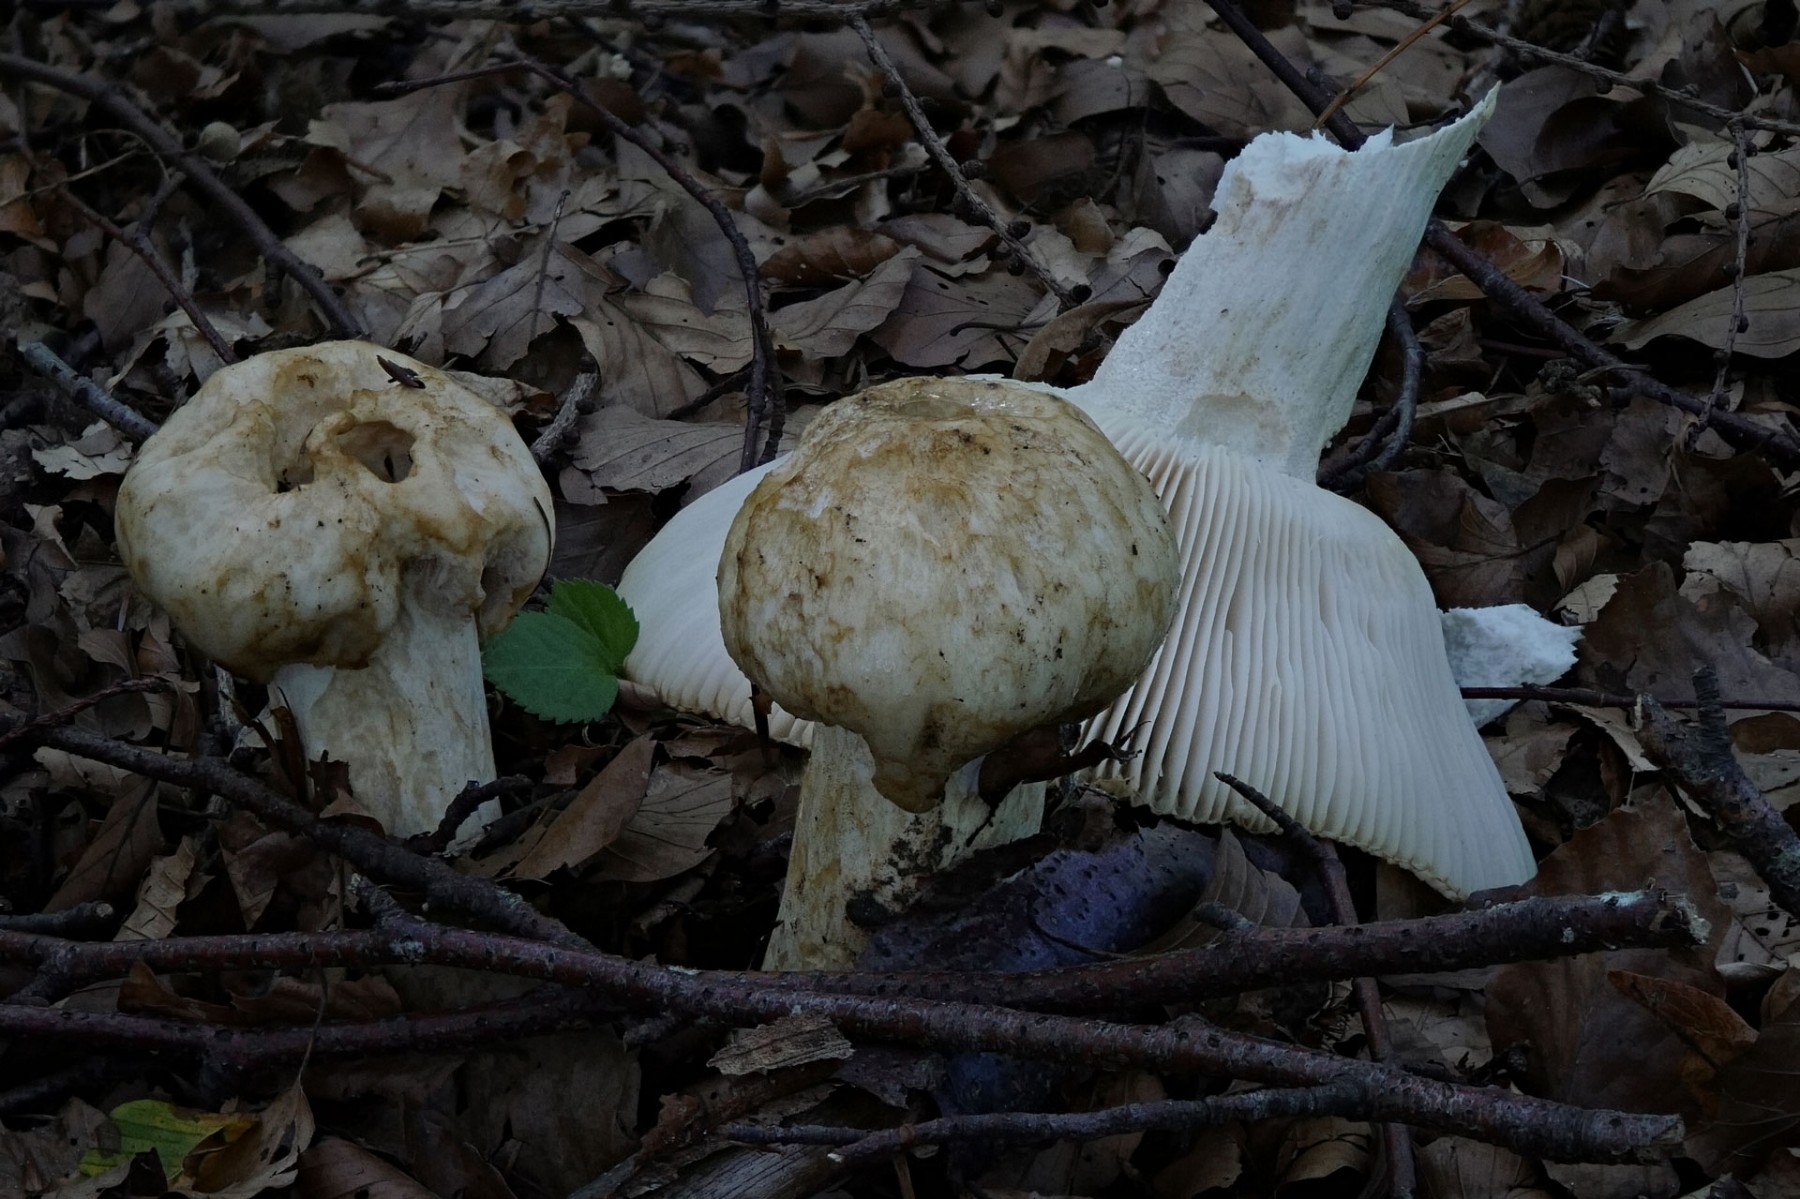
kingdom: Fungi
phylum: Basidiomycota
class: Agaricomycetes
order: Russulales
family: Russulaceae
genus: Russula
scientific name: Russula foetens
